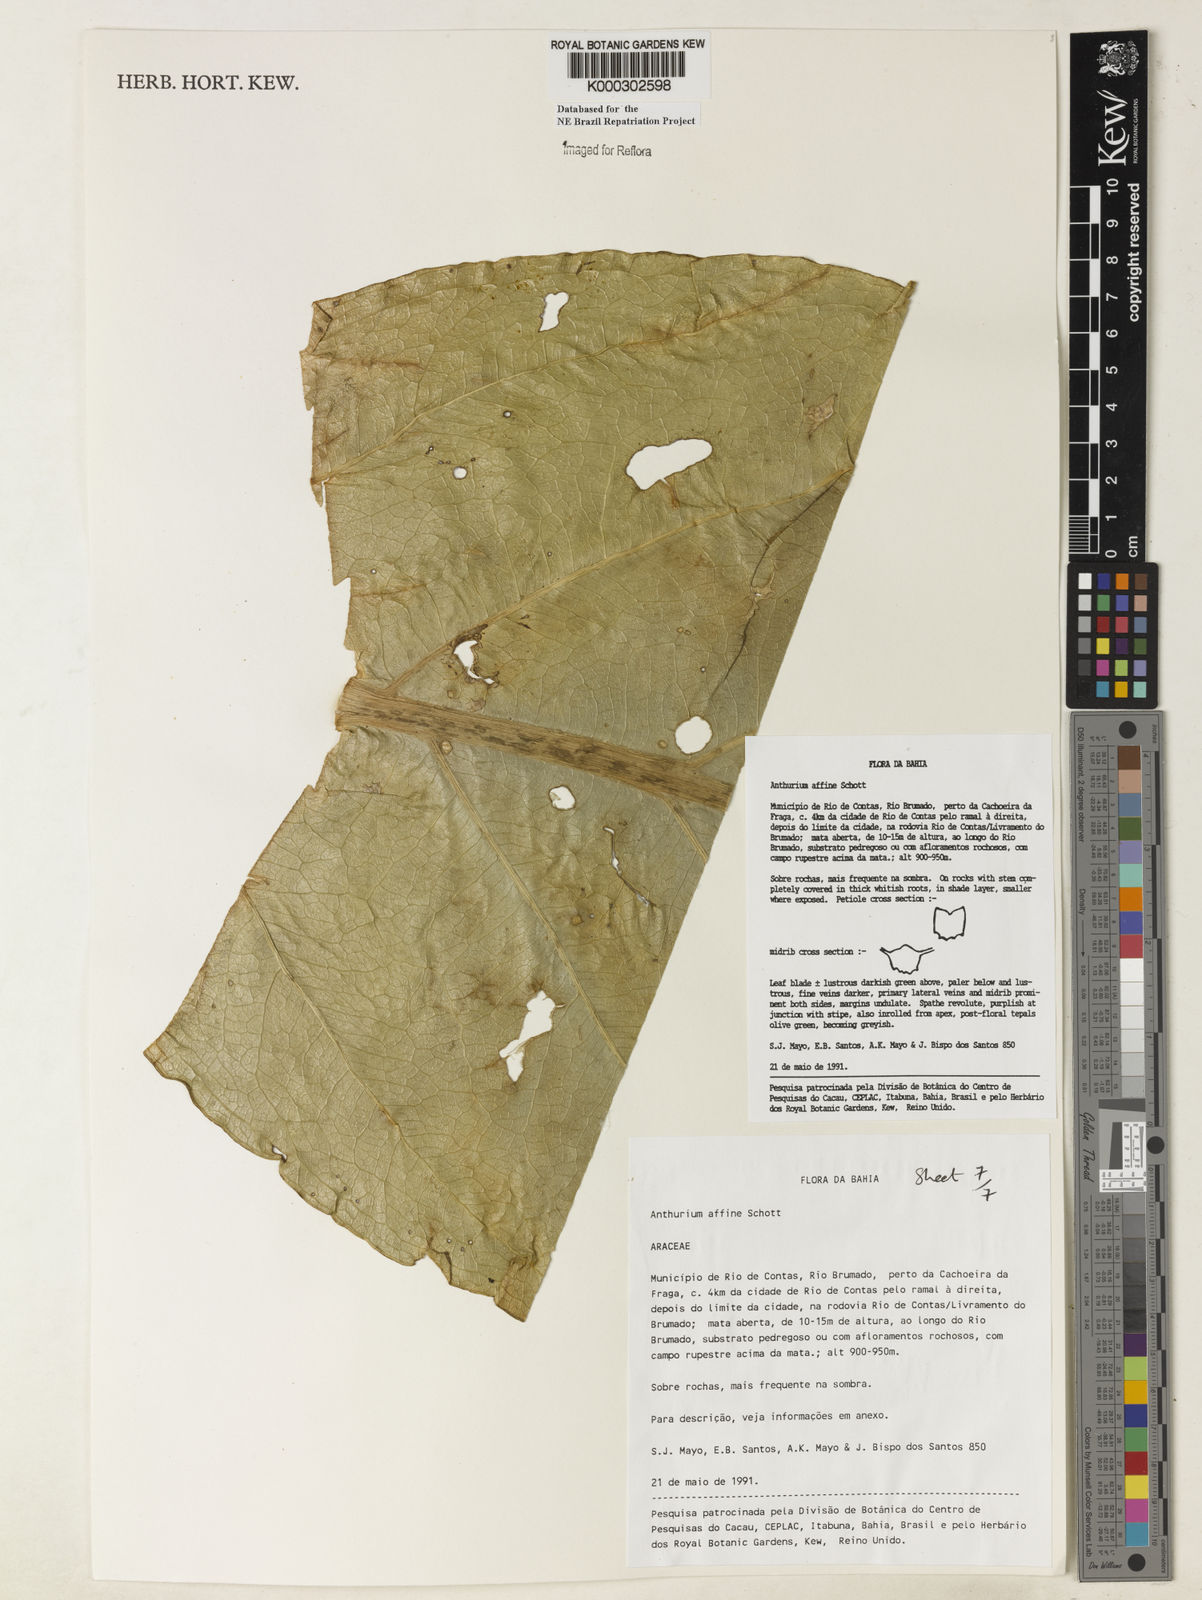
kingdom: Plantae
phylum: Tracheophyta
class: Liliopsida
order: Alismatales
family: Araceae
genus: Anthurium
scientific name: Anthurium affine
